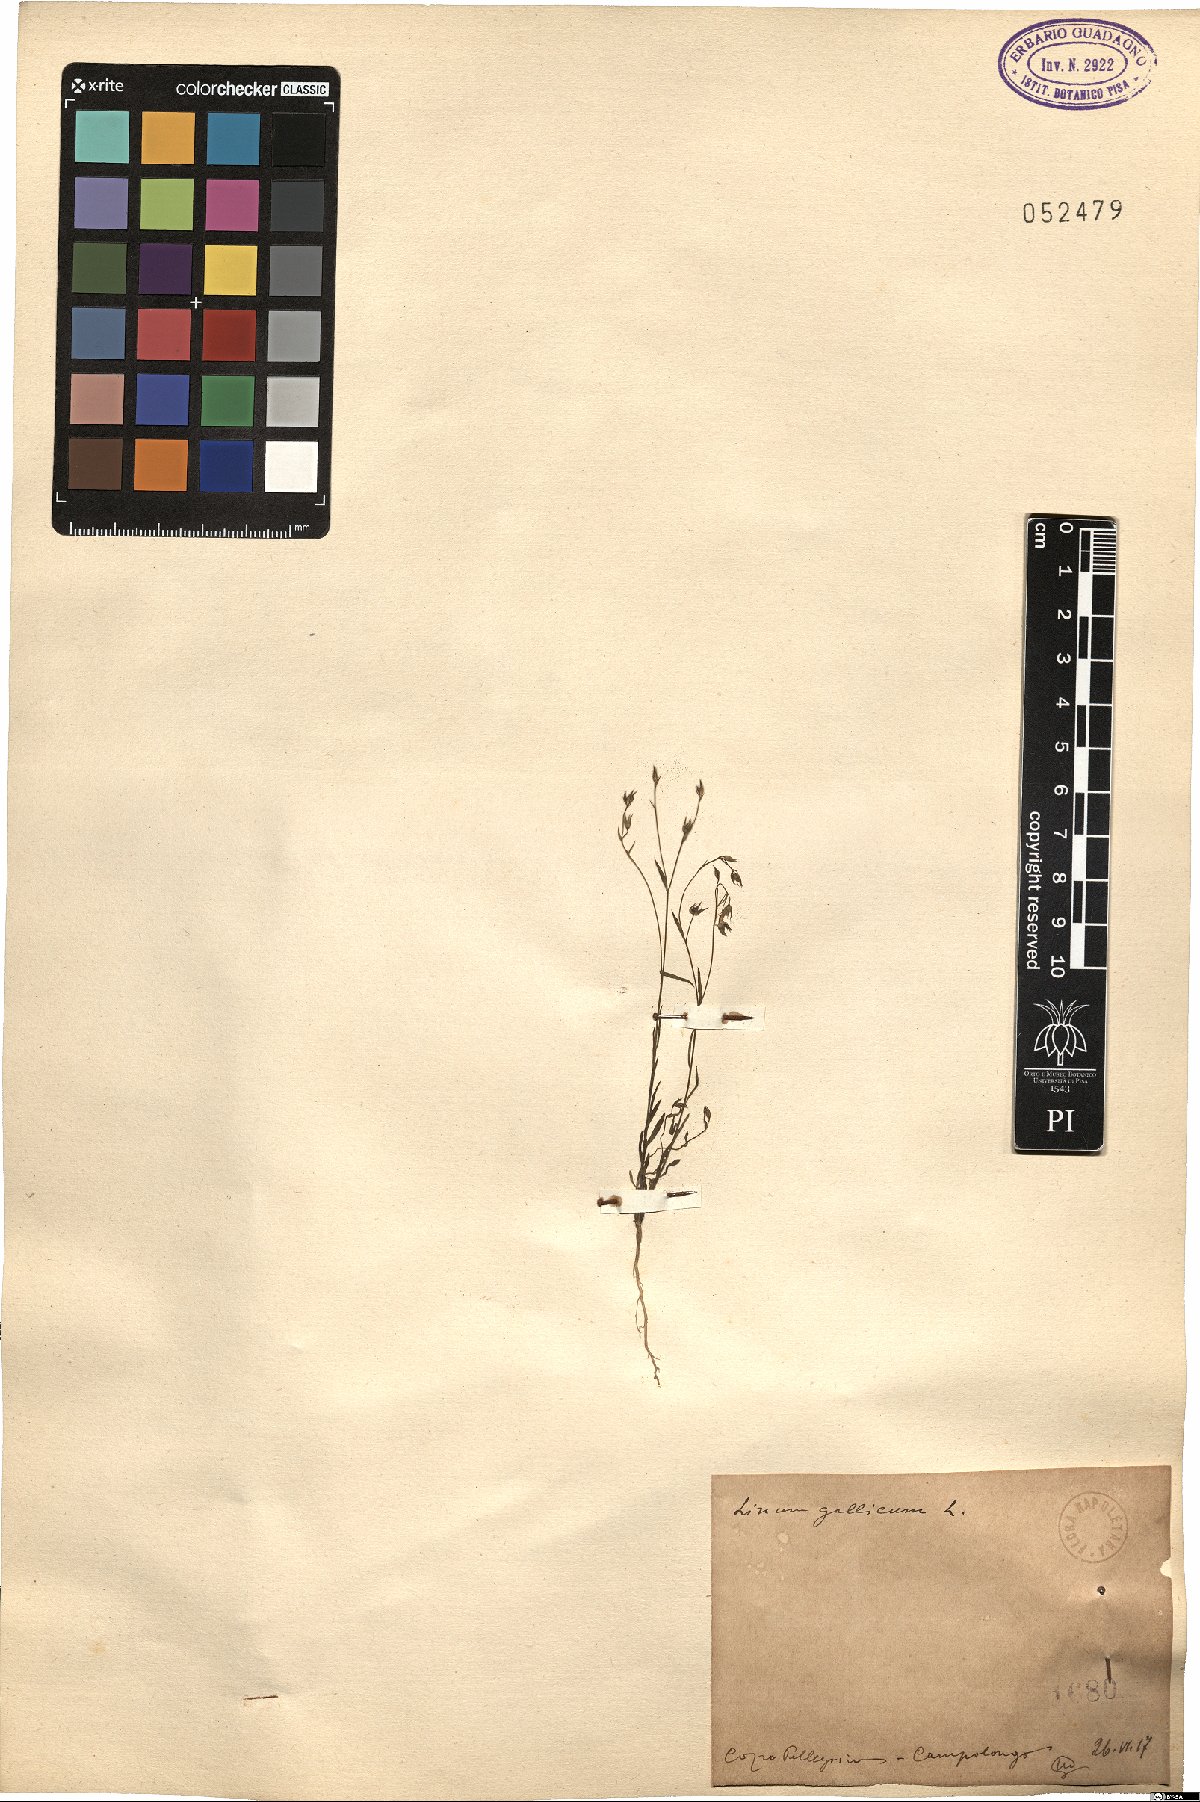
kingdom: Plantae
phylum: Tracheophyta
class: Magnoliopsida
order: Malpighiales
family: Linaceae
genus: Linum
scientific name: Linum trigynum
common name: French flax
